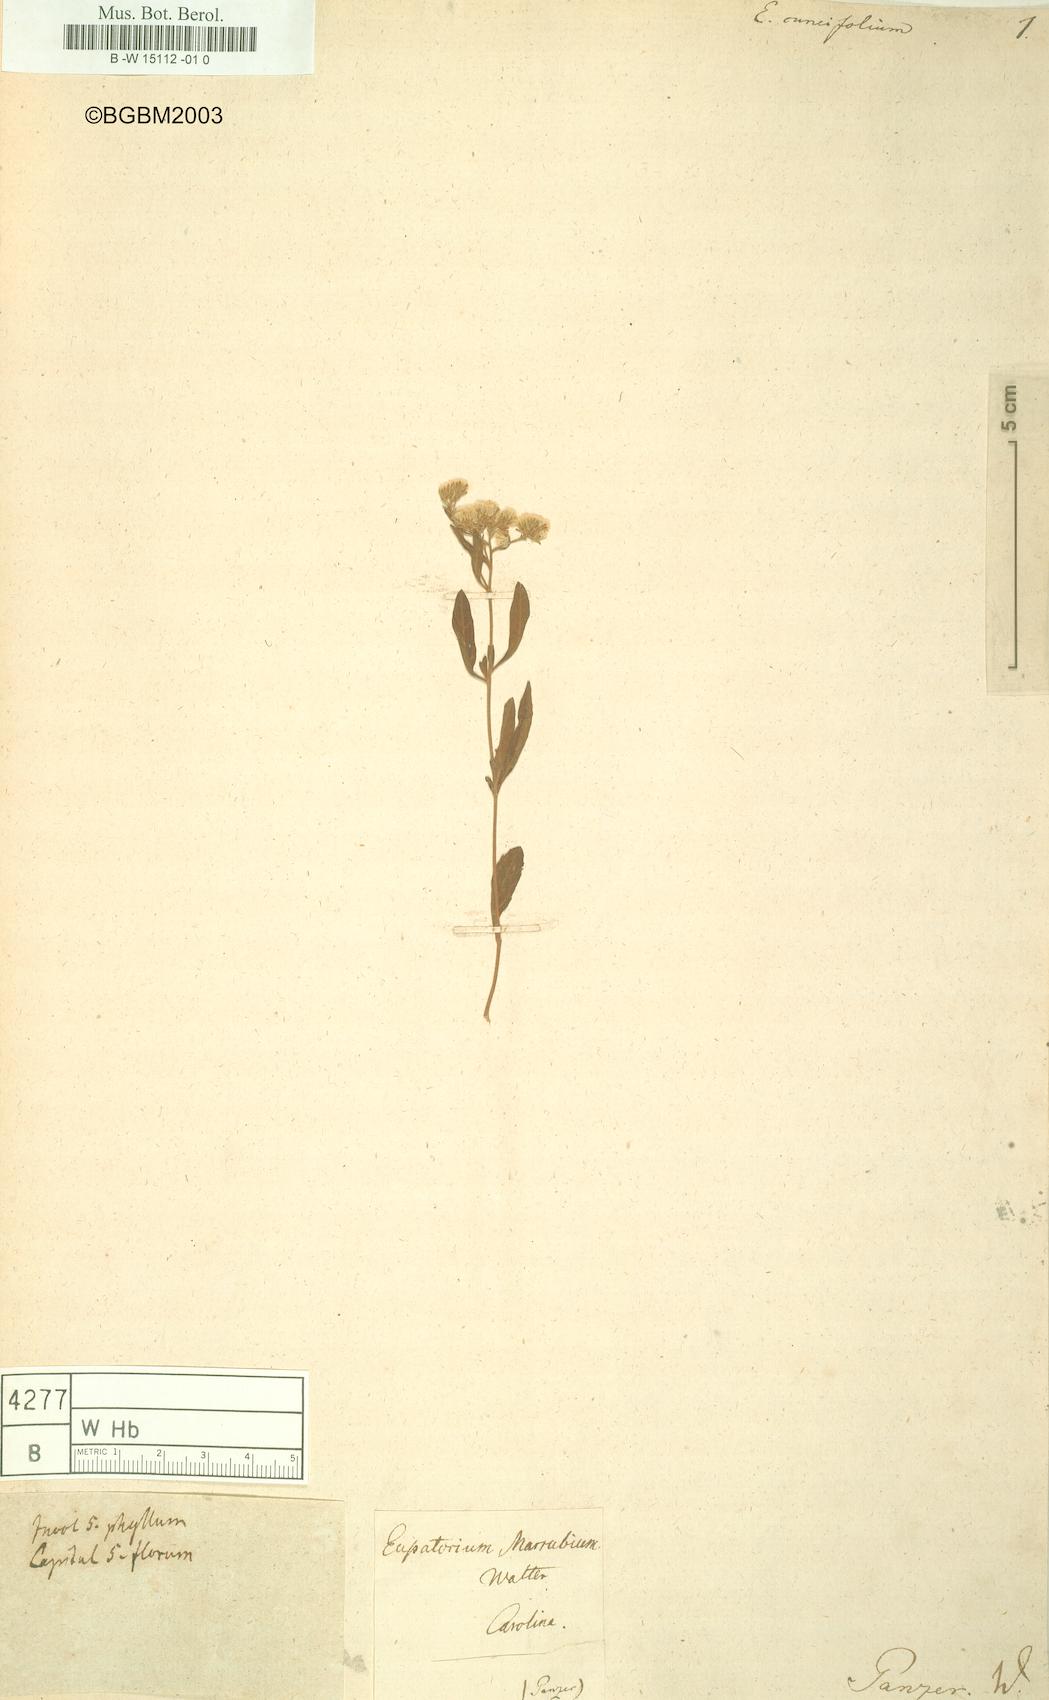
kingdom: Plantae
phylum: Tracheophyta
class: Magnoliopsida
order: Asterales
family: Asteraceae
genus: Eupatorium
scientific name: Eupatorium cuneifolium
